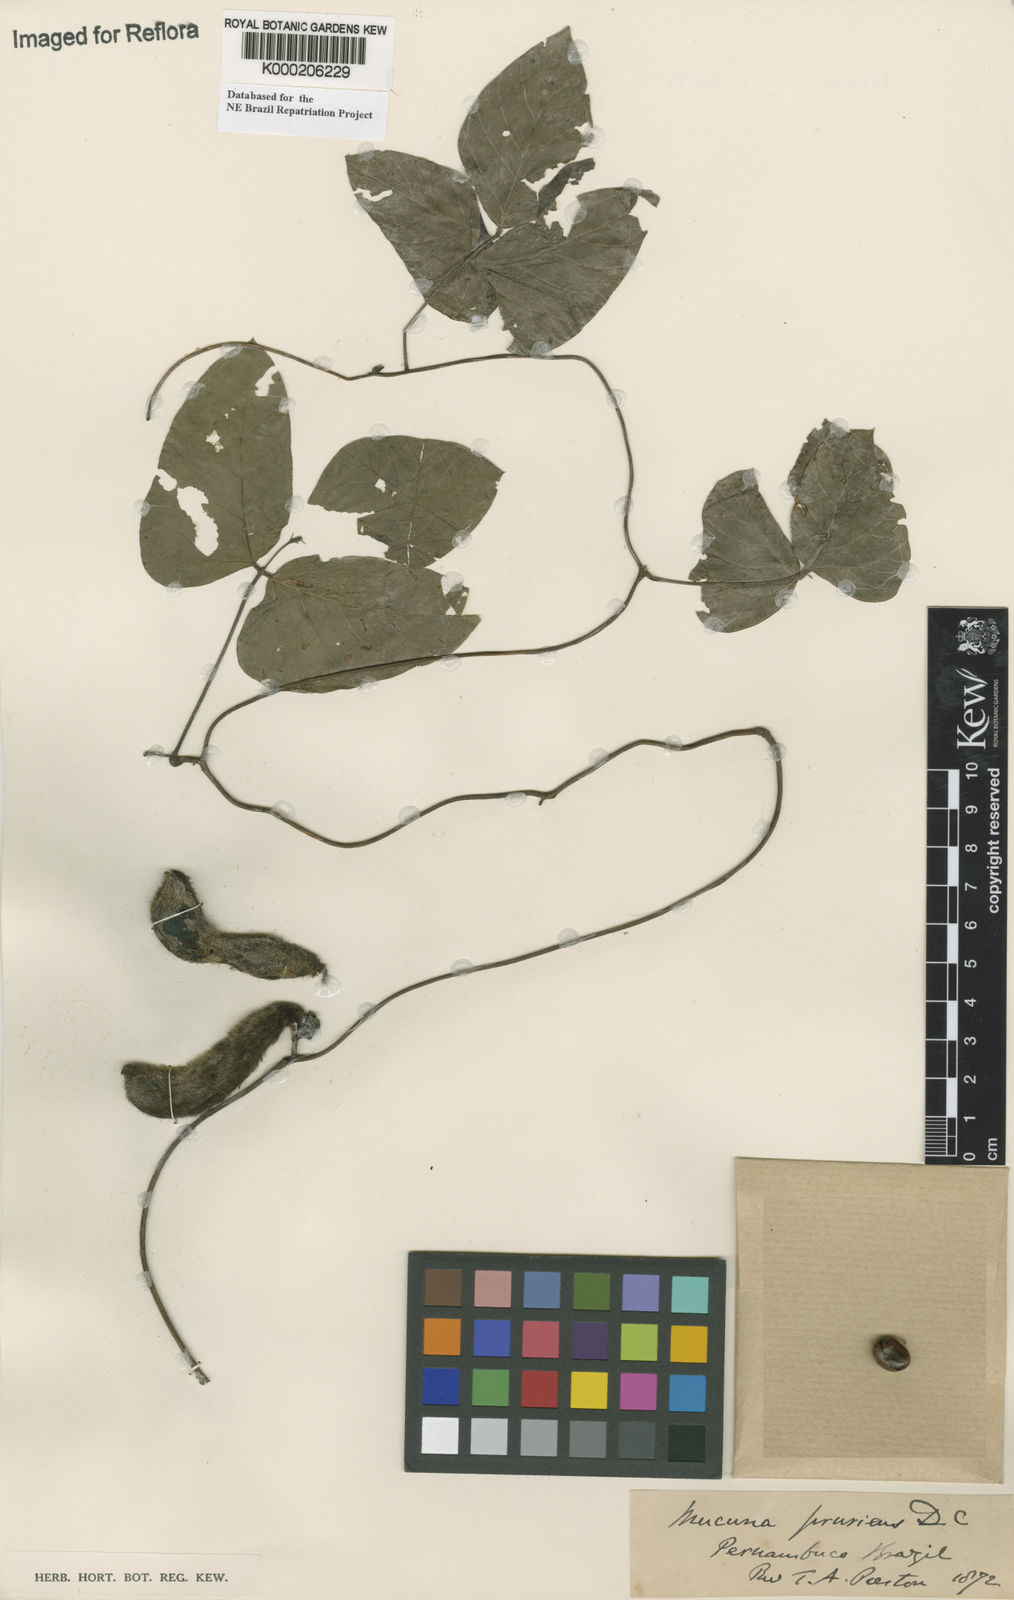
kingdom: Plantae
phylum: Tracheophyta
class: Magnoliopsida
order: Fabales
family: Fabaceae
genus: Mucuna
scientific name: Mucuna pruriens
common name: Cow-itch
